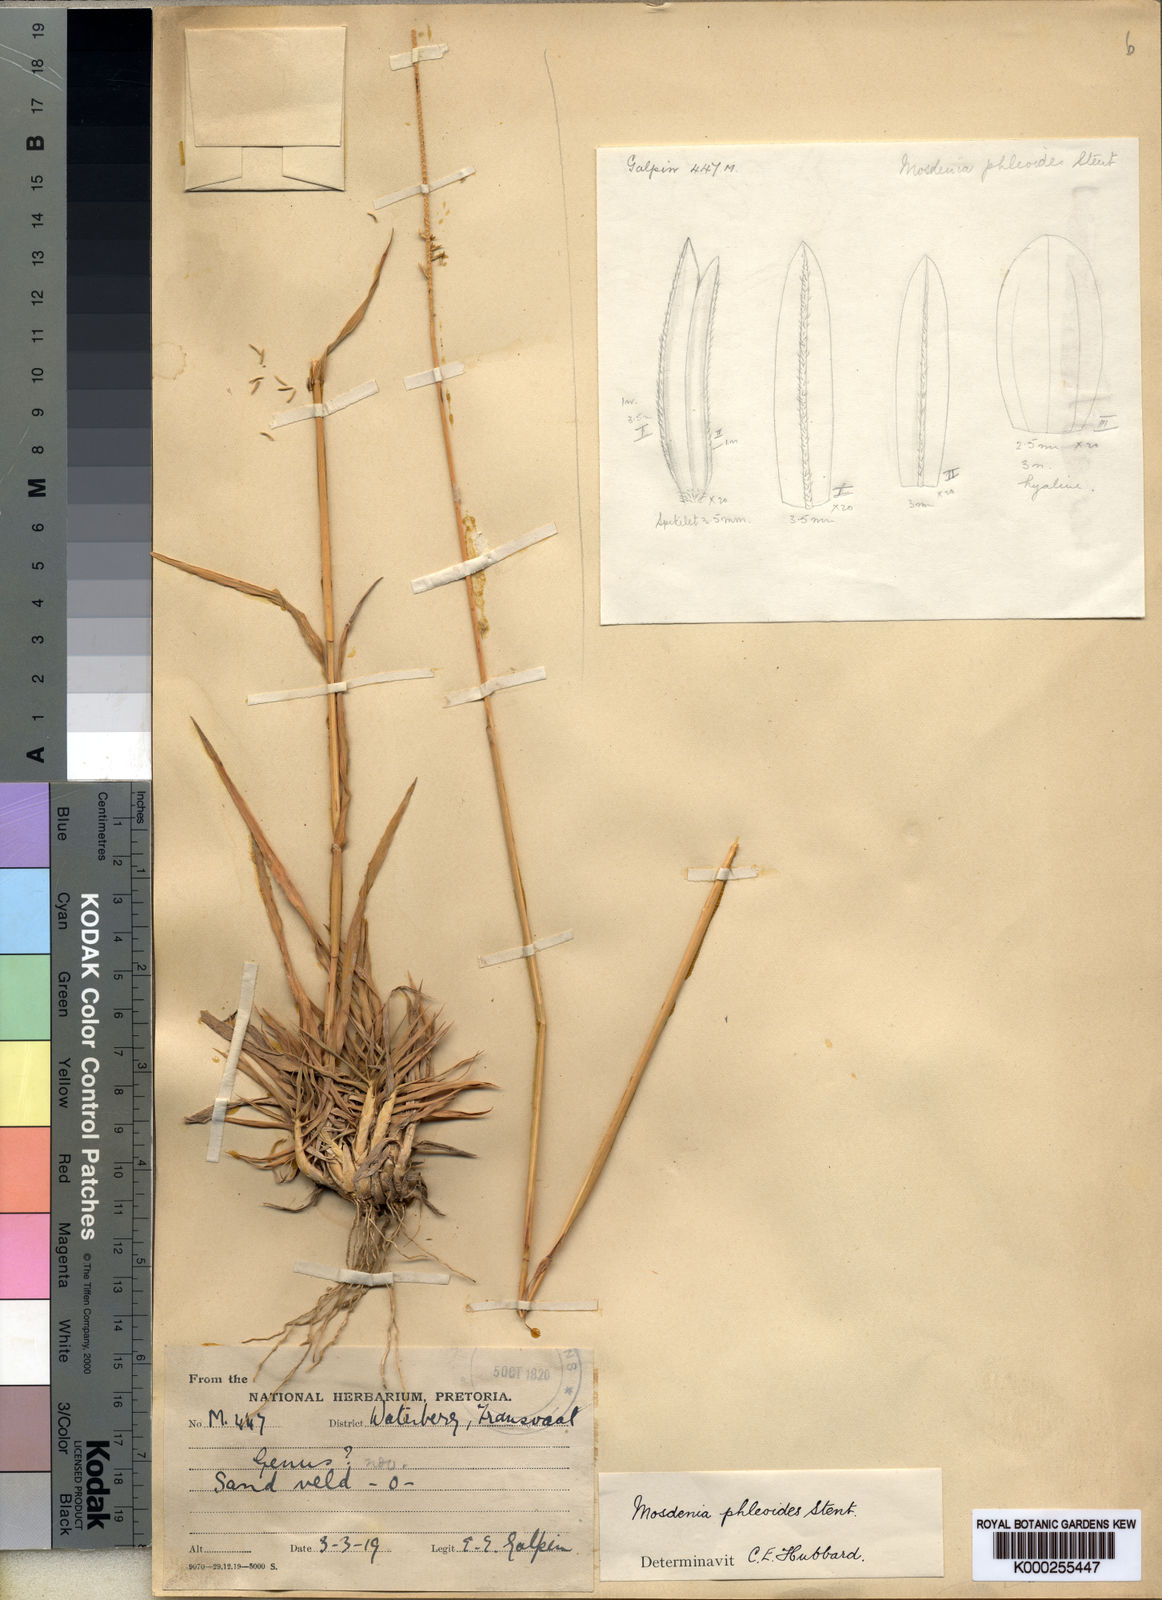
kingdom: Plantae
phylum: Tracheophyta
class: Liliopsida
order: Poales
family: Poaceae
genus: Mosdenia
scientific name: Mosdenia leptostachys
